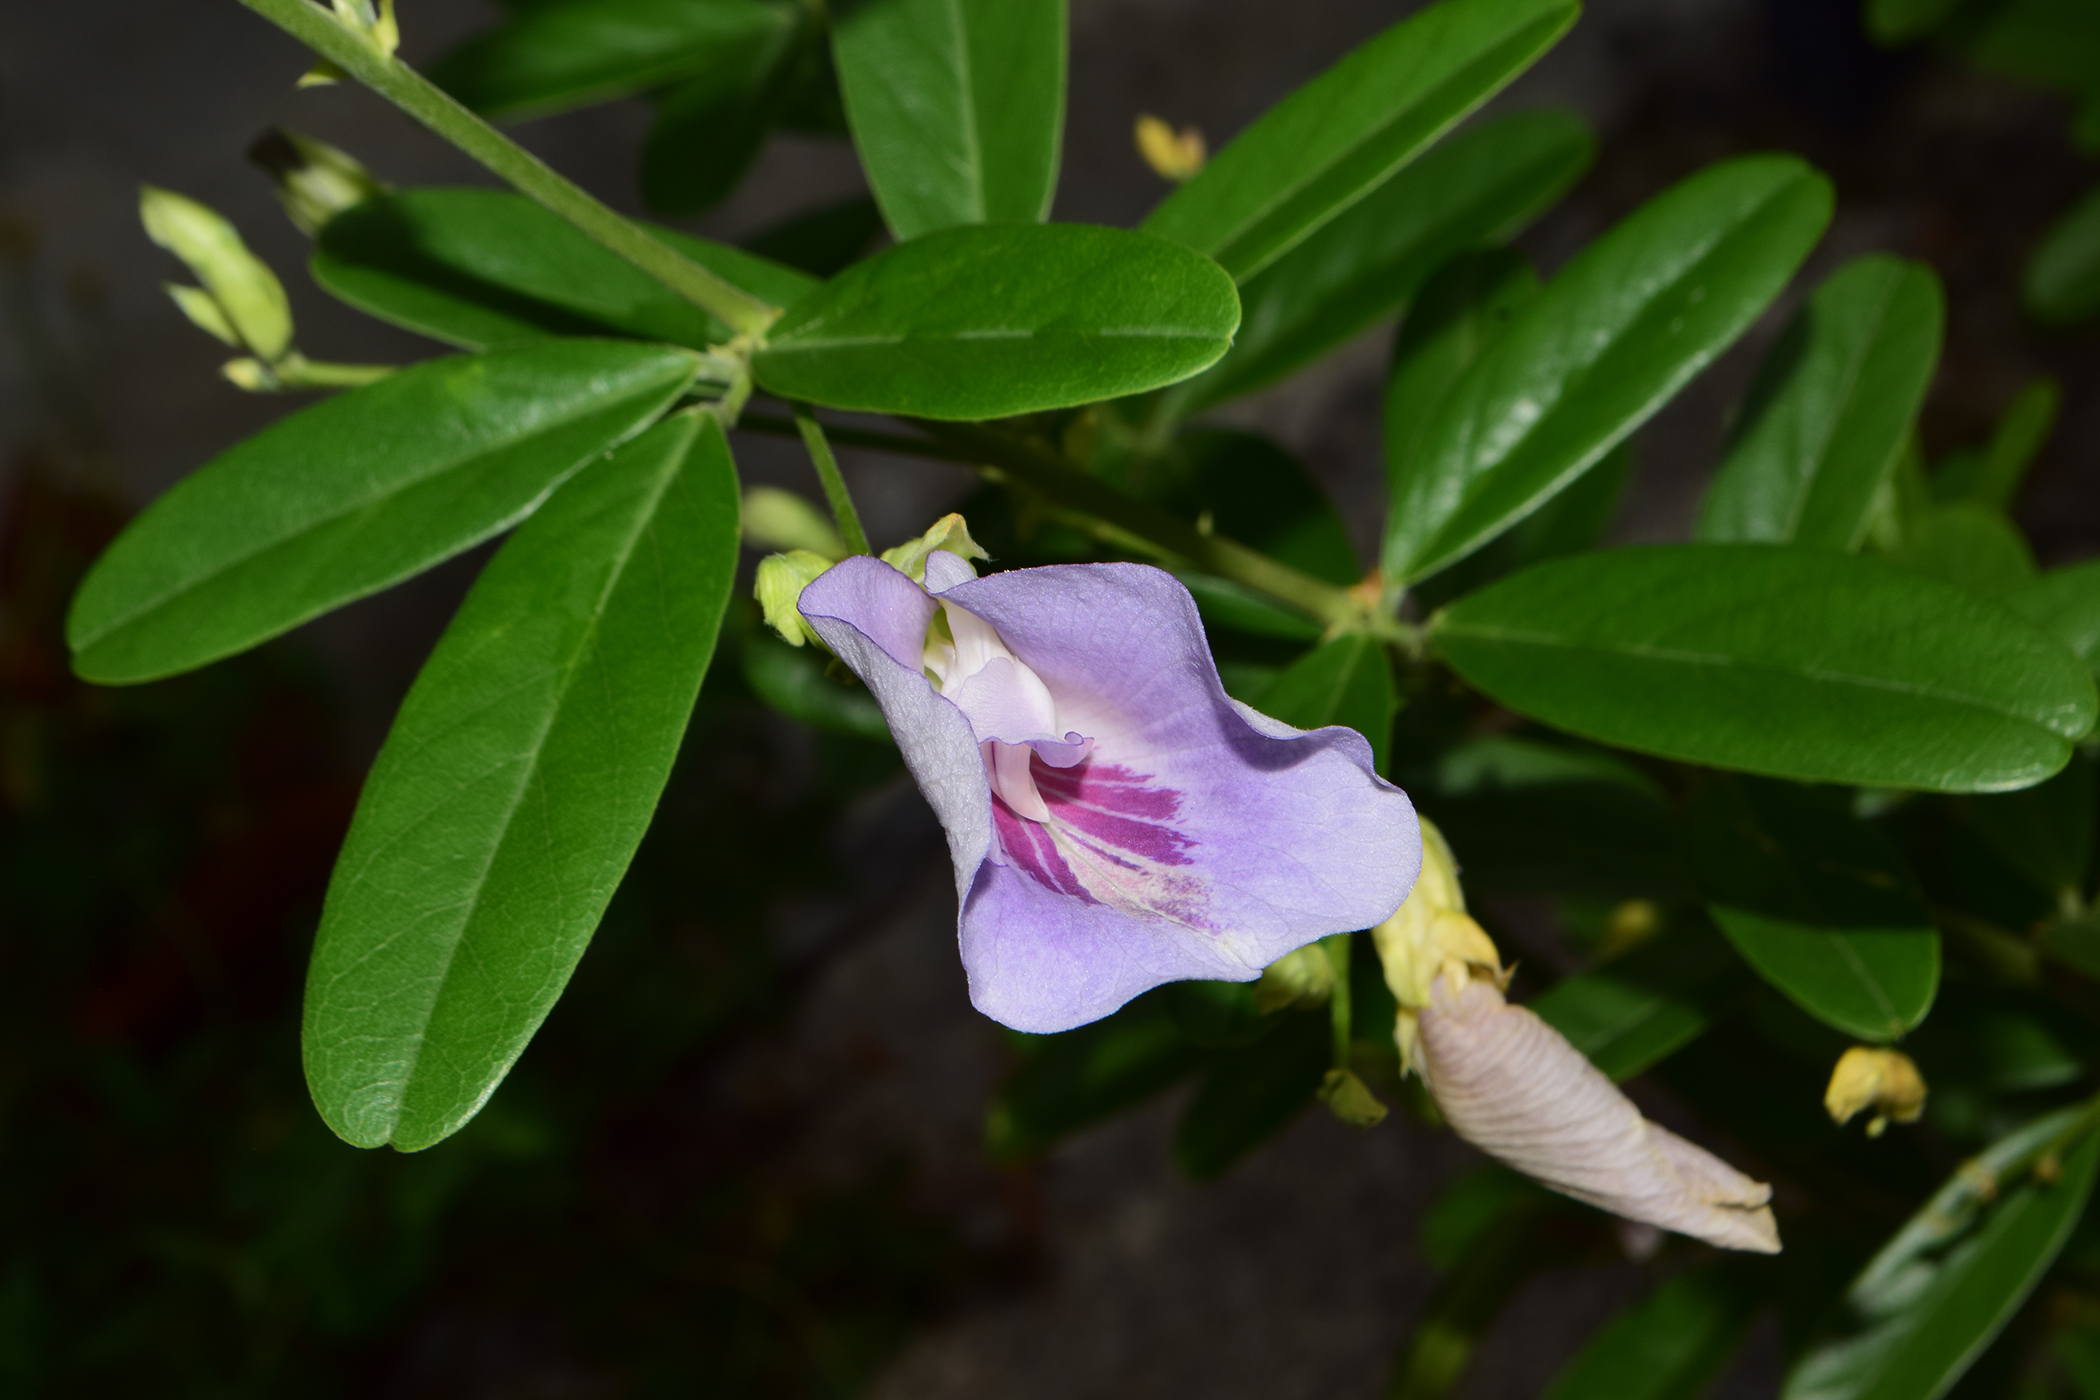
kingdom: Plantae
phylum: Tracheophyta
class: Magnoliopsida
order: Fabales
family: Fabaceae
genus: Clitoria
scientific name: Clitoria laurifolia
